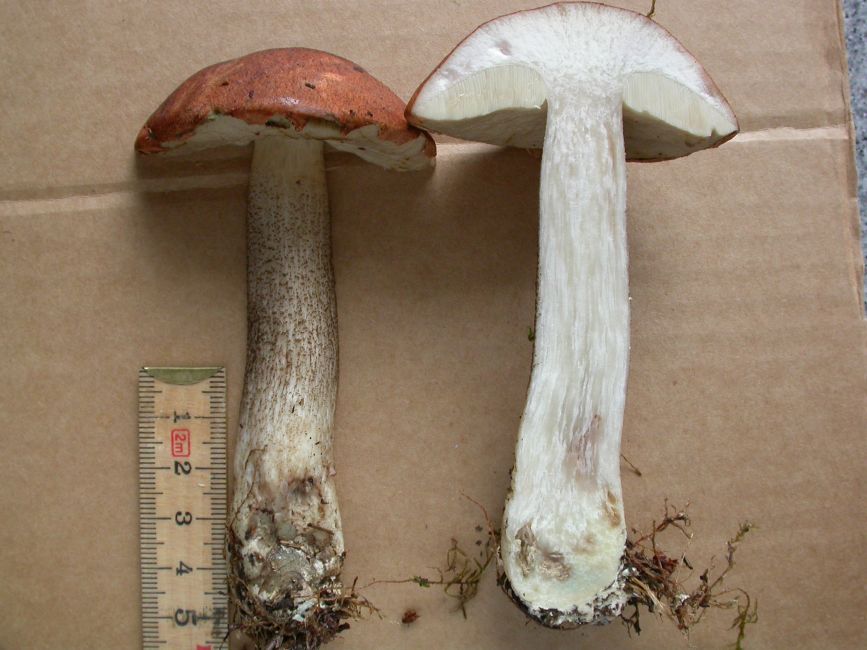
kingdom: Fungi
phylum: Basidiomycota
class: Agaricomycetes
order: Boletales
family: Boletaceae
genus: Leccinum
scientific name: Leccinum vulpinum
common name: fyrre-skælrørhat
